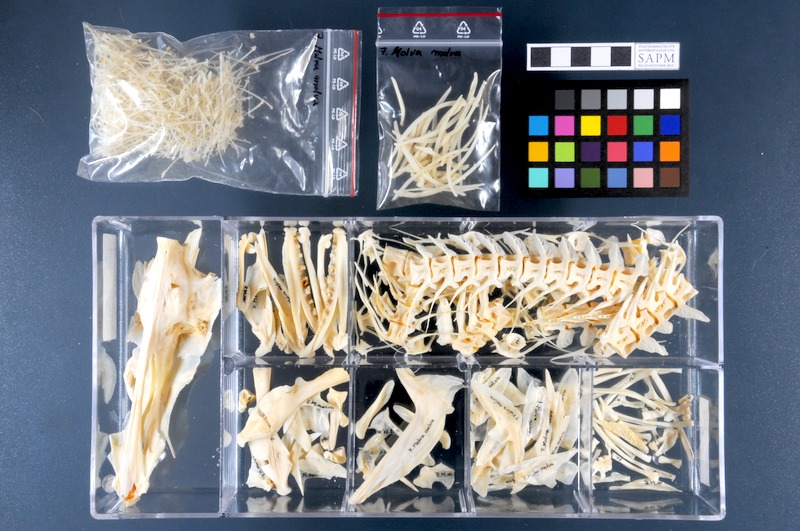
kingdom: Animalia
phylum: Chordata
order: Gadiformes
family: Lotidae
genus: Molva
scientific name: Molva molva
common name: Ling
